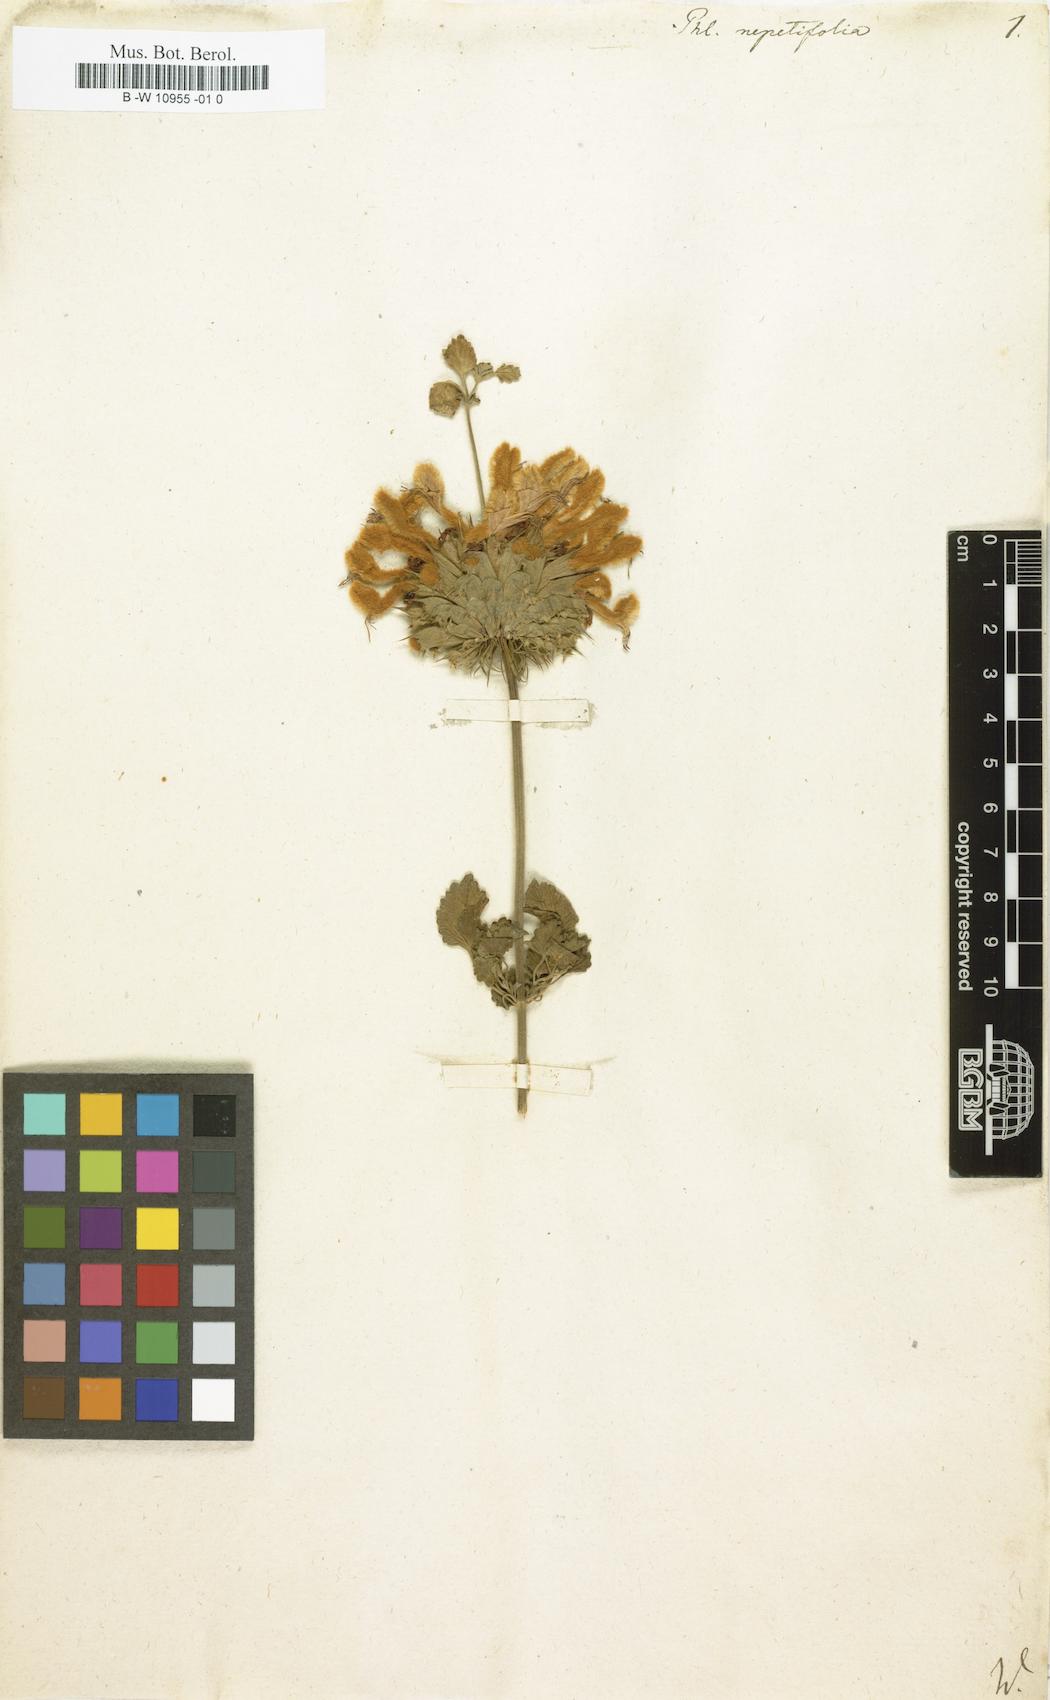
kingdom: Plantae
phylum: Tracheophyta
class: Magnoliopsida
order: Lamiales
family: Lamiaceae
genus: Leonotis
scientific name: Leonotis nepetifolia
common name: Christmas candlestick
